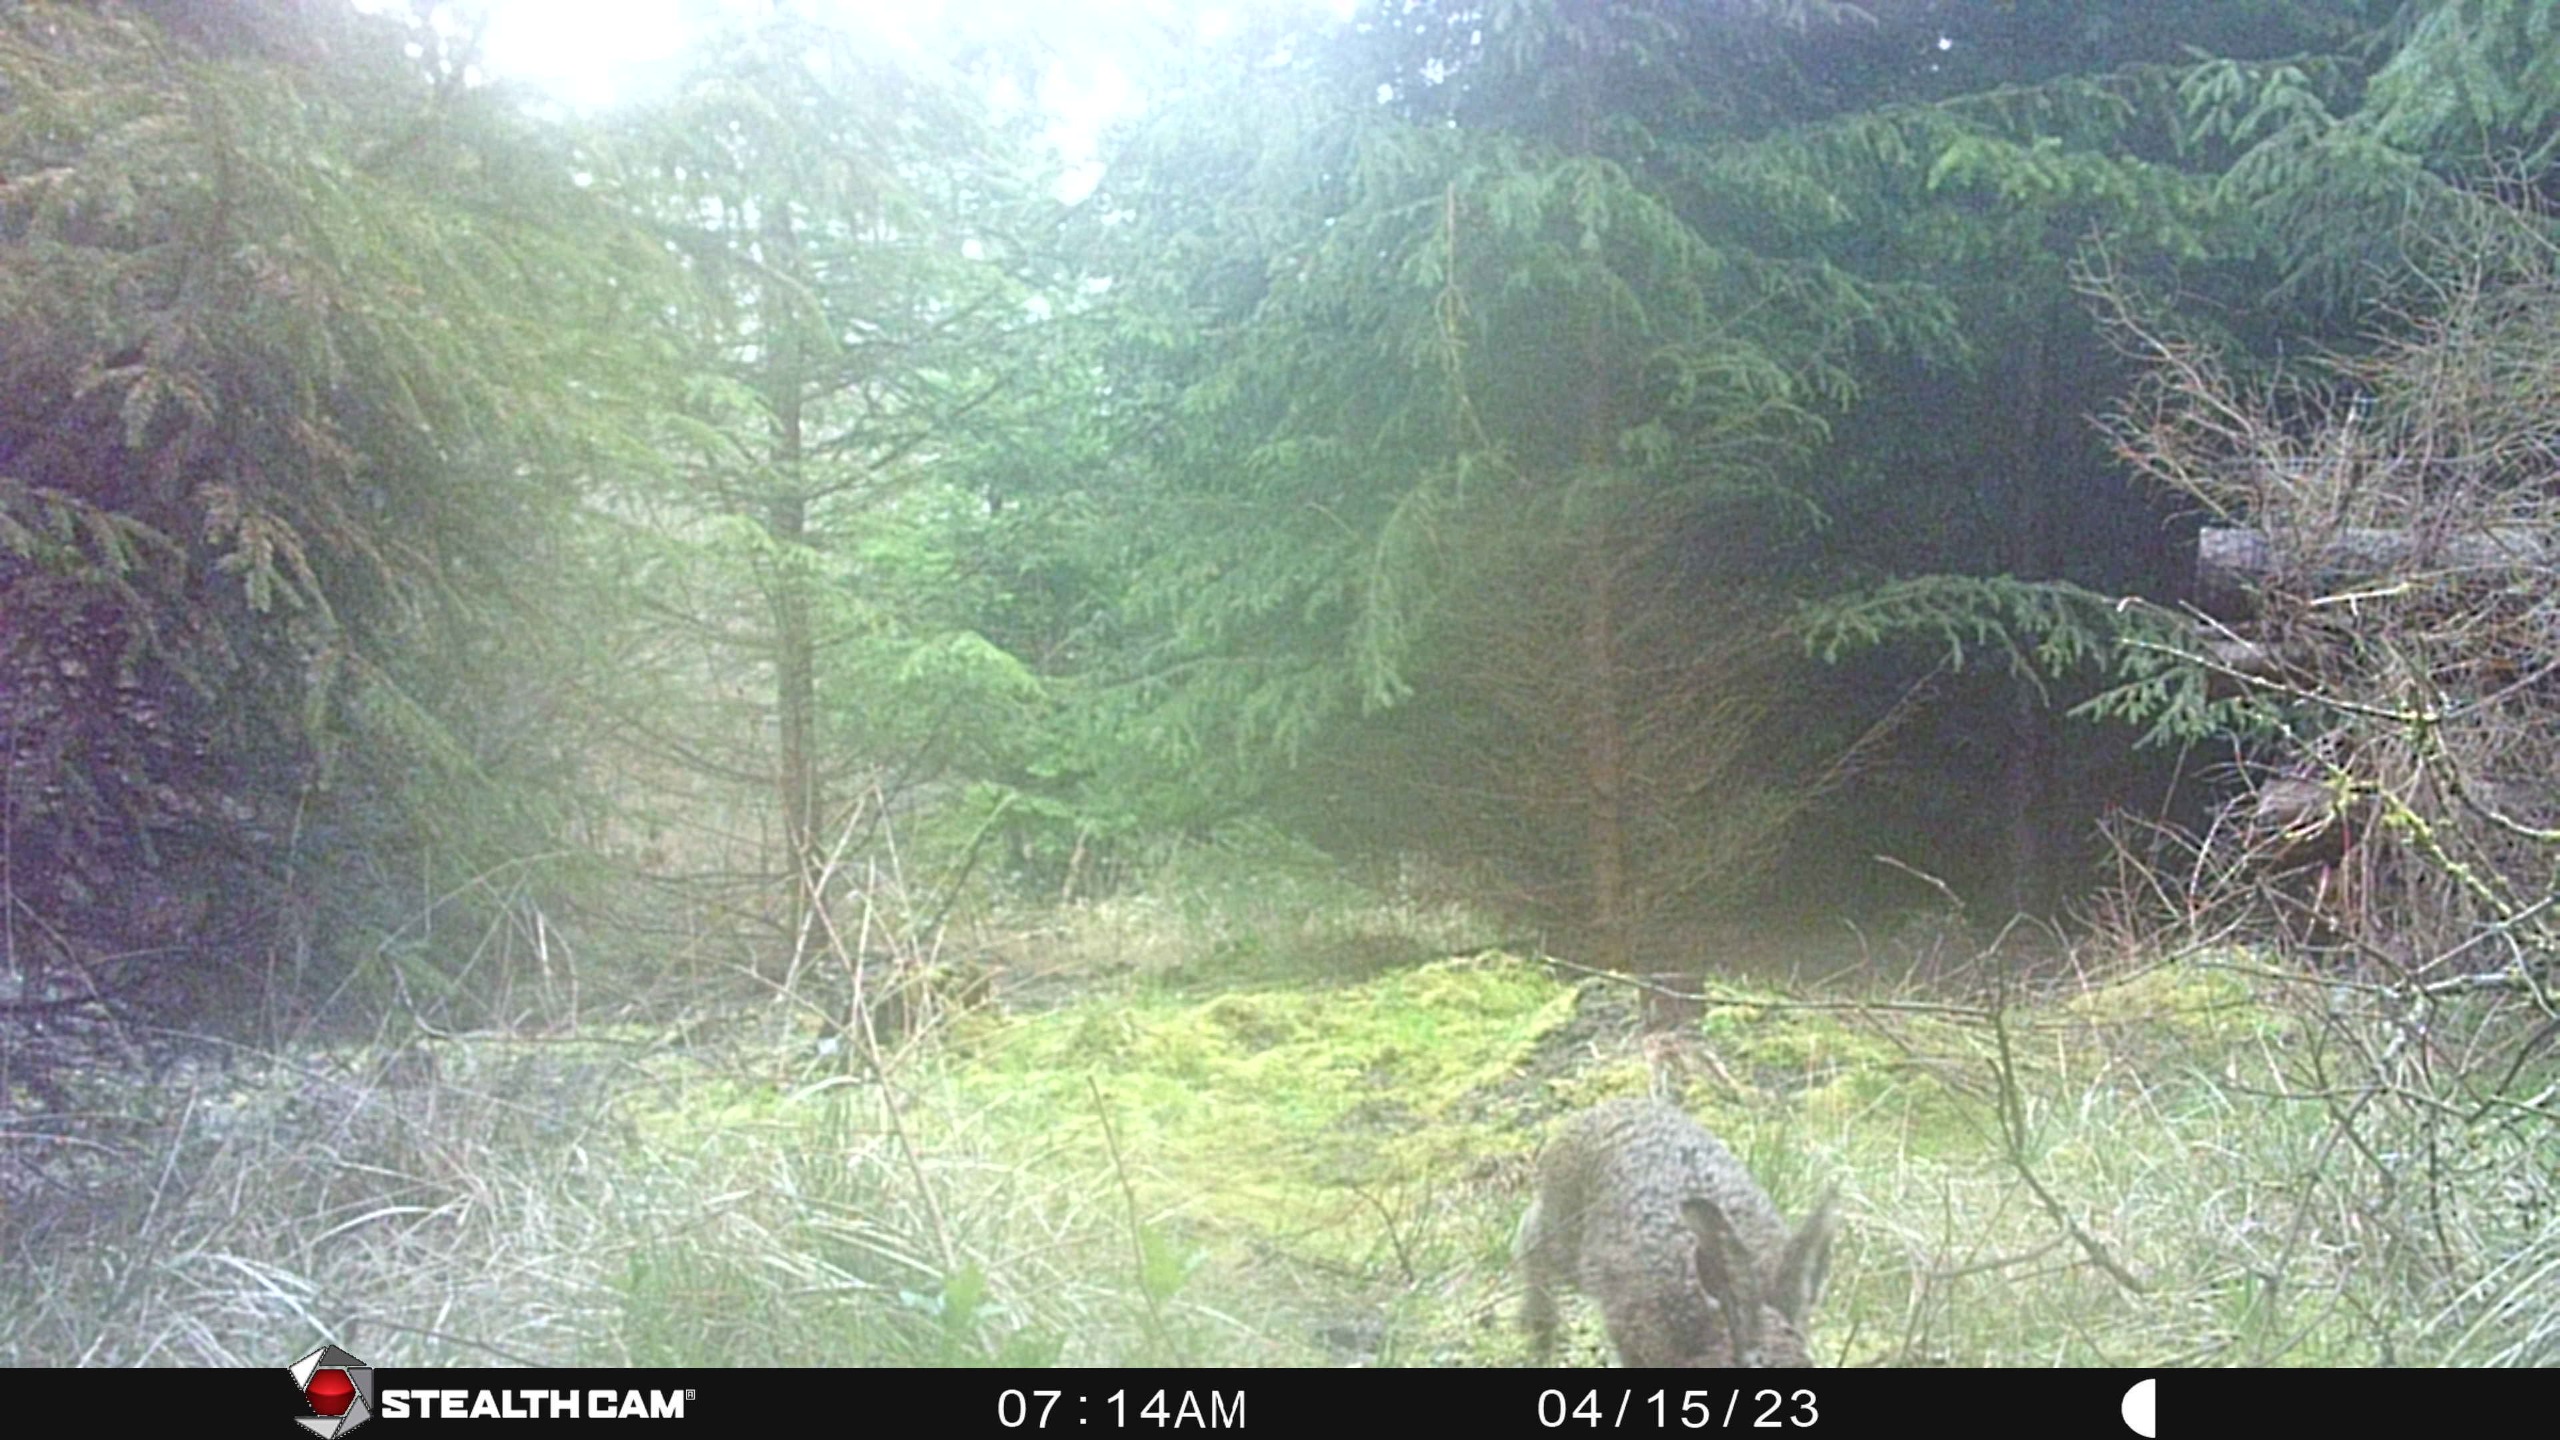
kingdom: Animalia
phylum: Chordata
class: Mammalia
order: Lagomorpha
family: Leporidae
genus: Lepus
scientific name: Lepus europaeus
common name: Hare
